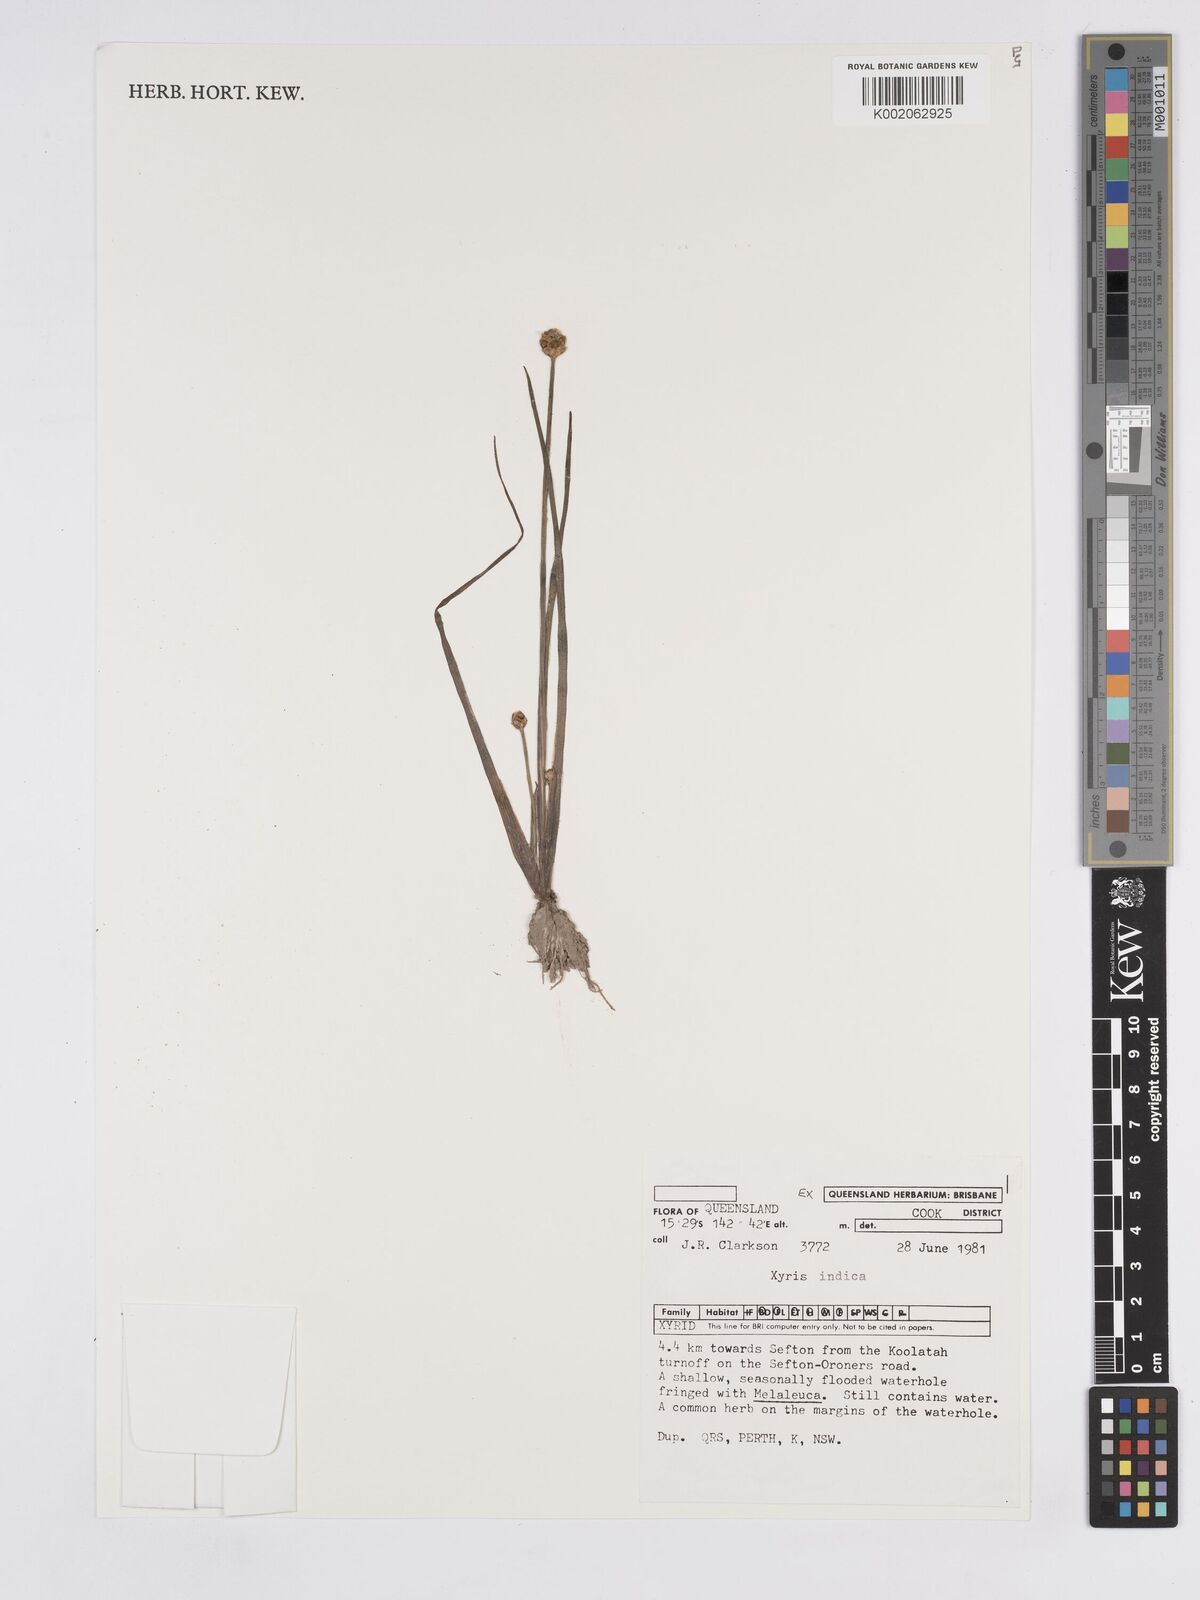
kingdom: Plantae
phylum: Tracheophyta
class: Liliopsida
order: Poales
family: Xyridaceae
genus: Xyris
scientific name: Xyris indica
